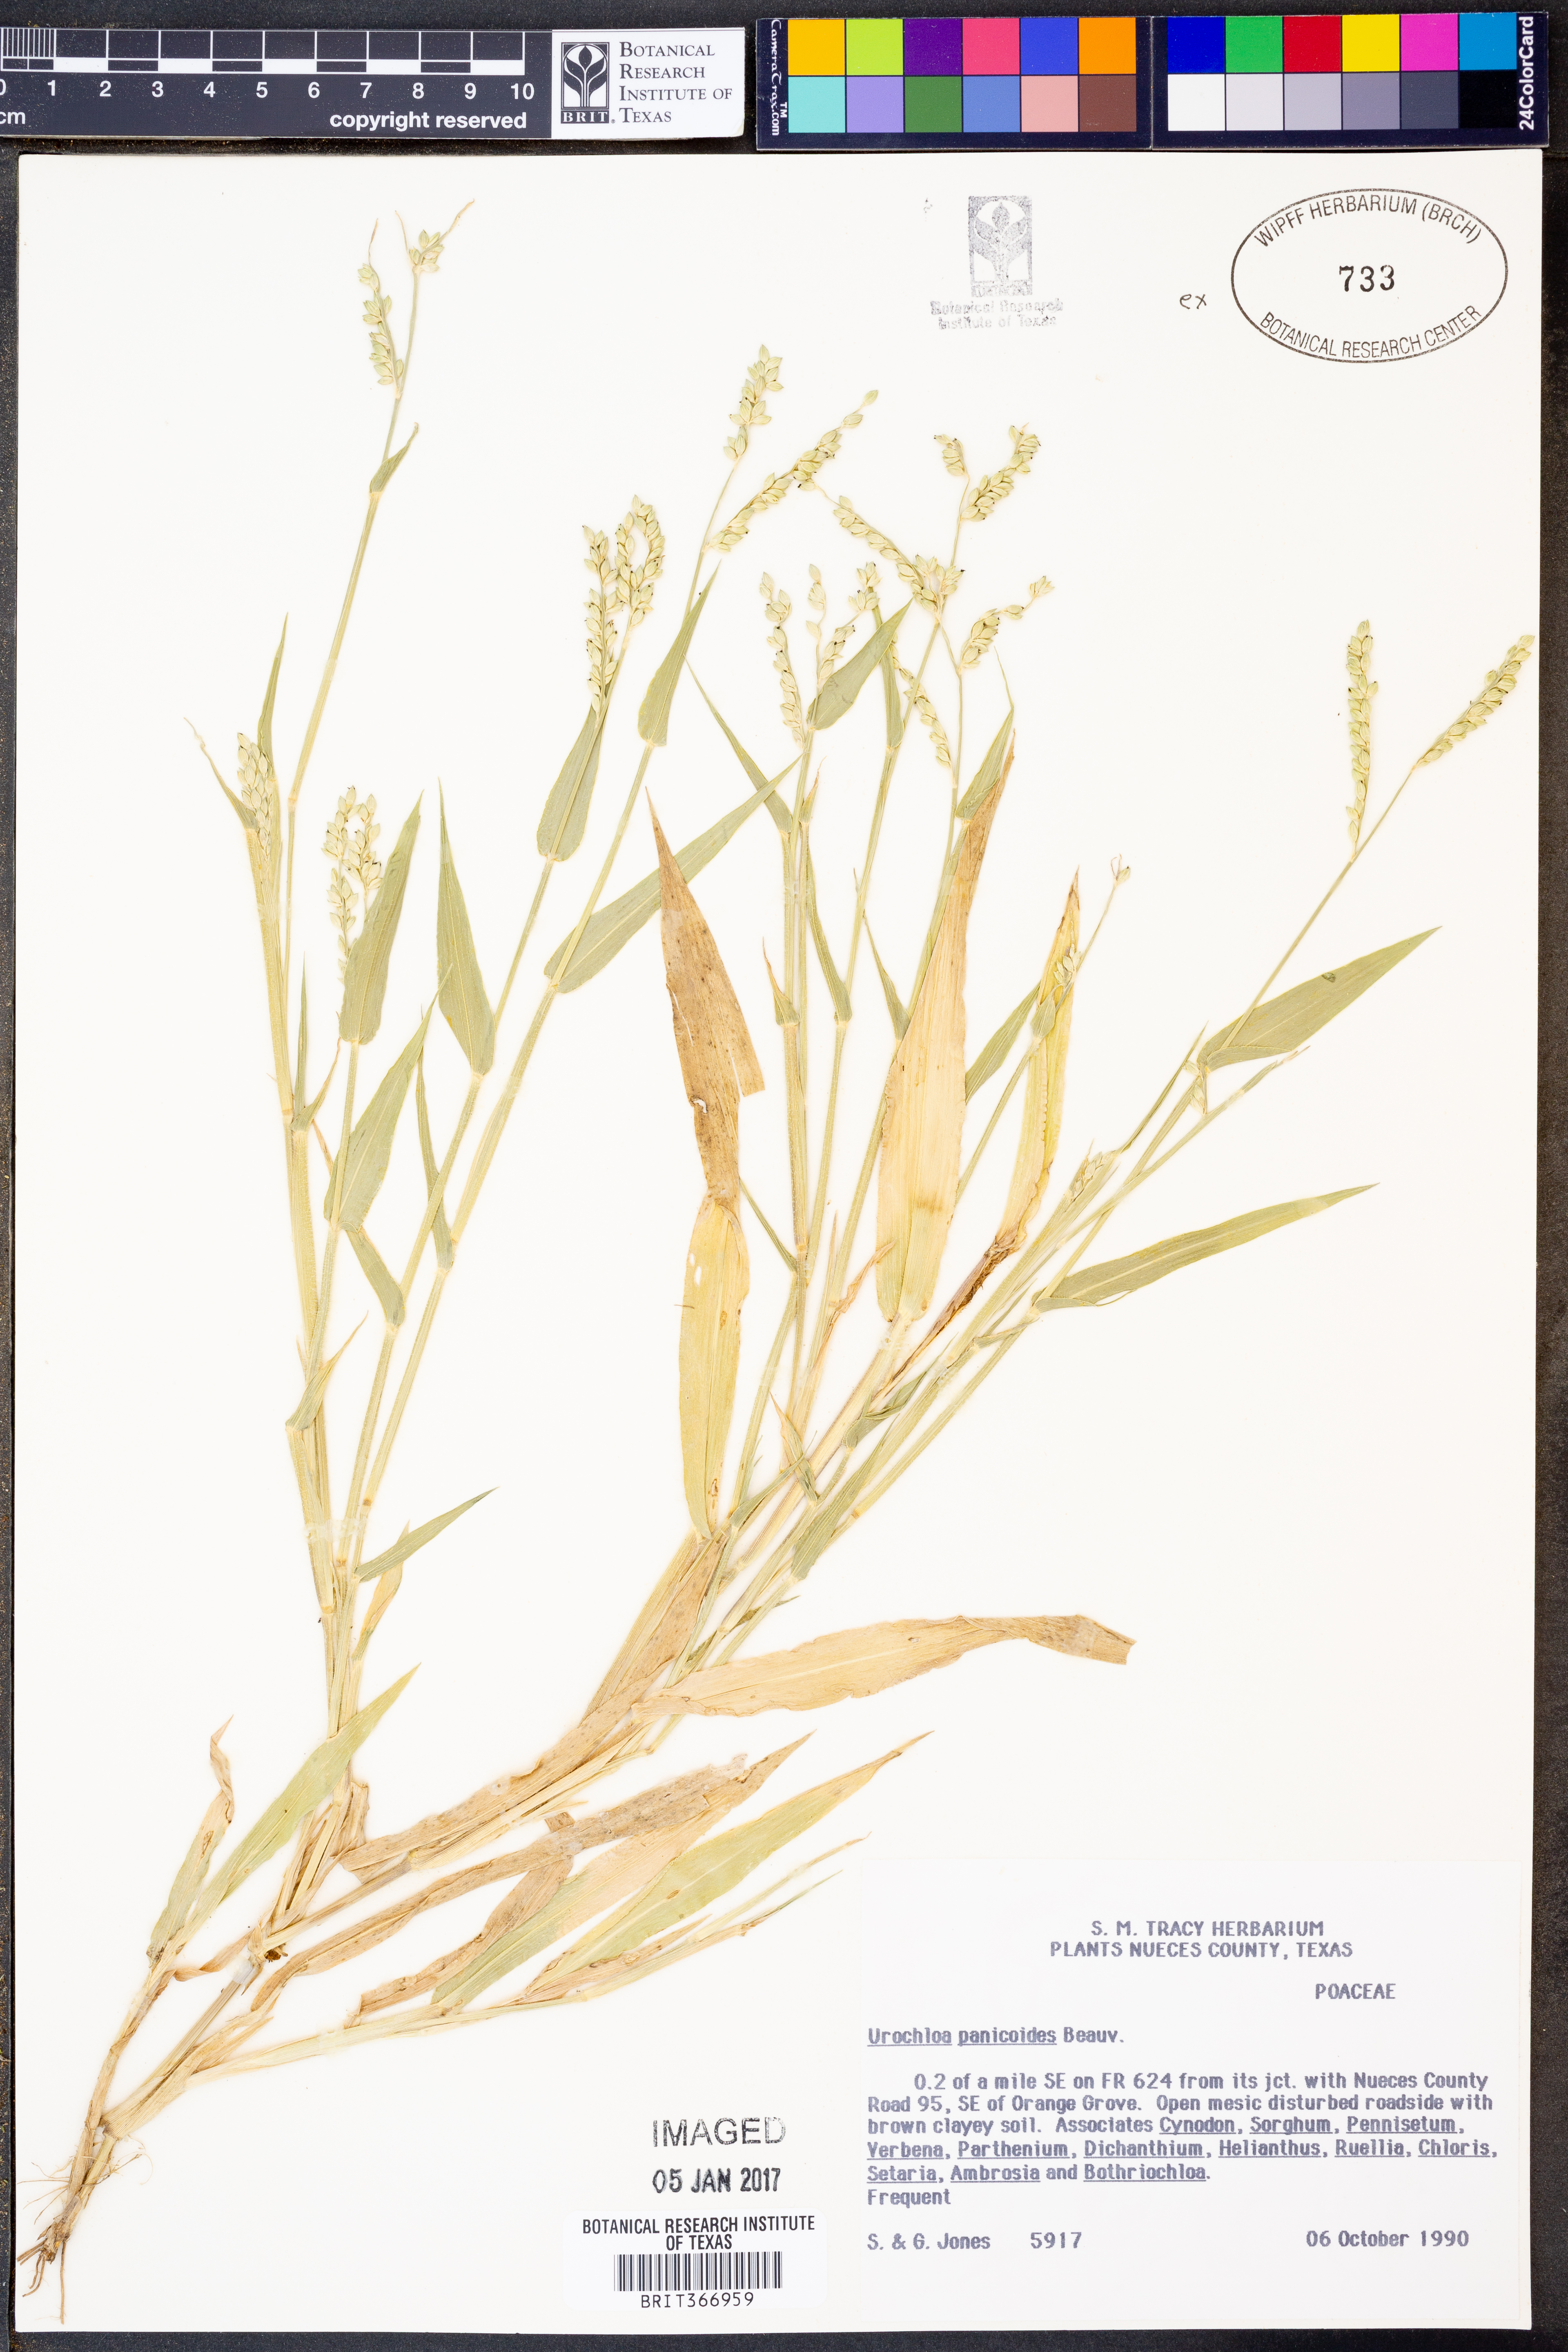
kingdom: Plantae
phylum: Tracheophyta
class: Liliopsida
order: Poales
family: Poaceae
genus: Urochloa
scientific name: Urochloa panicoides
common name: Sharp-flowered signal-grass
